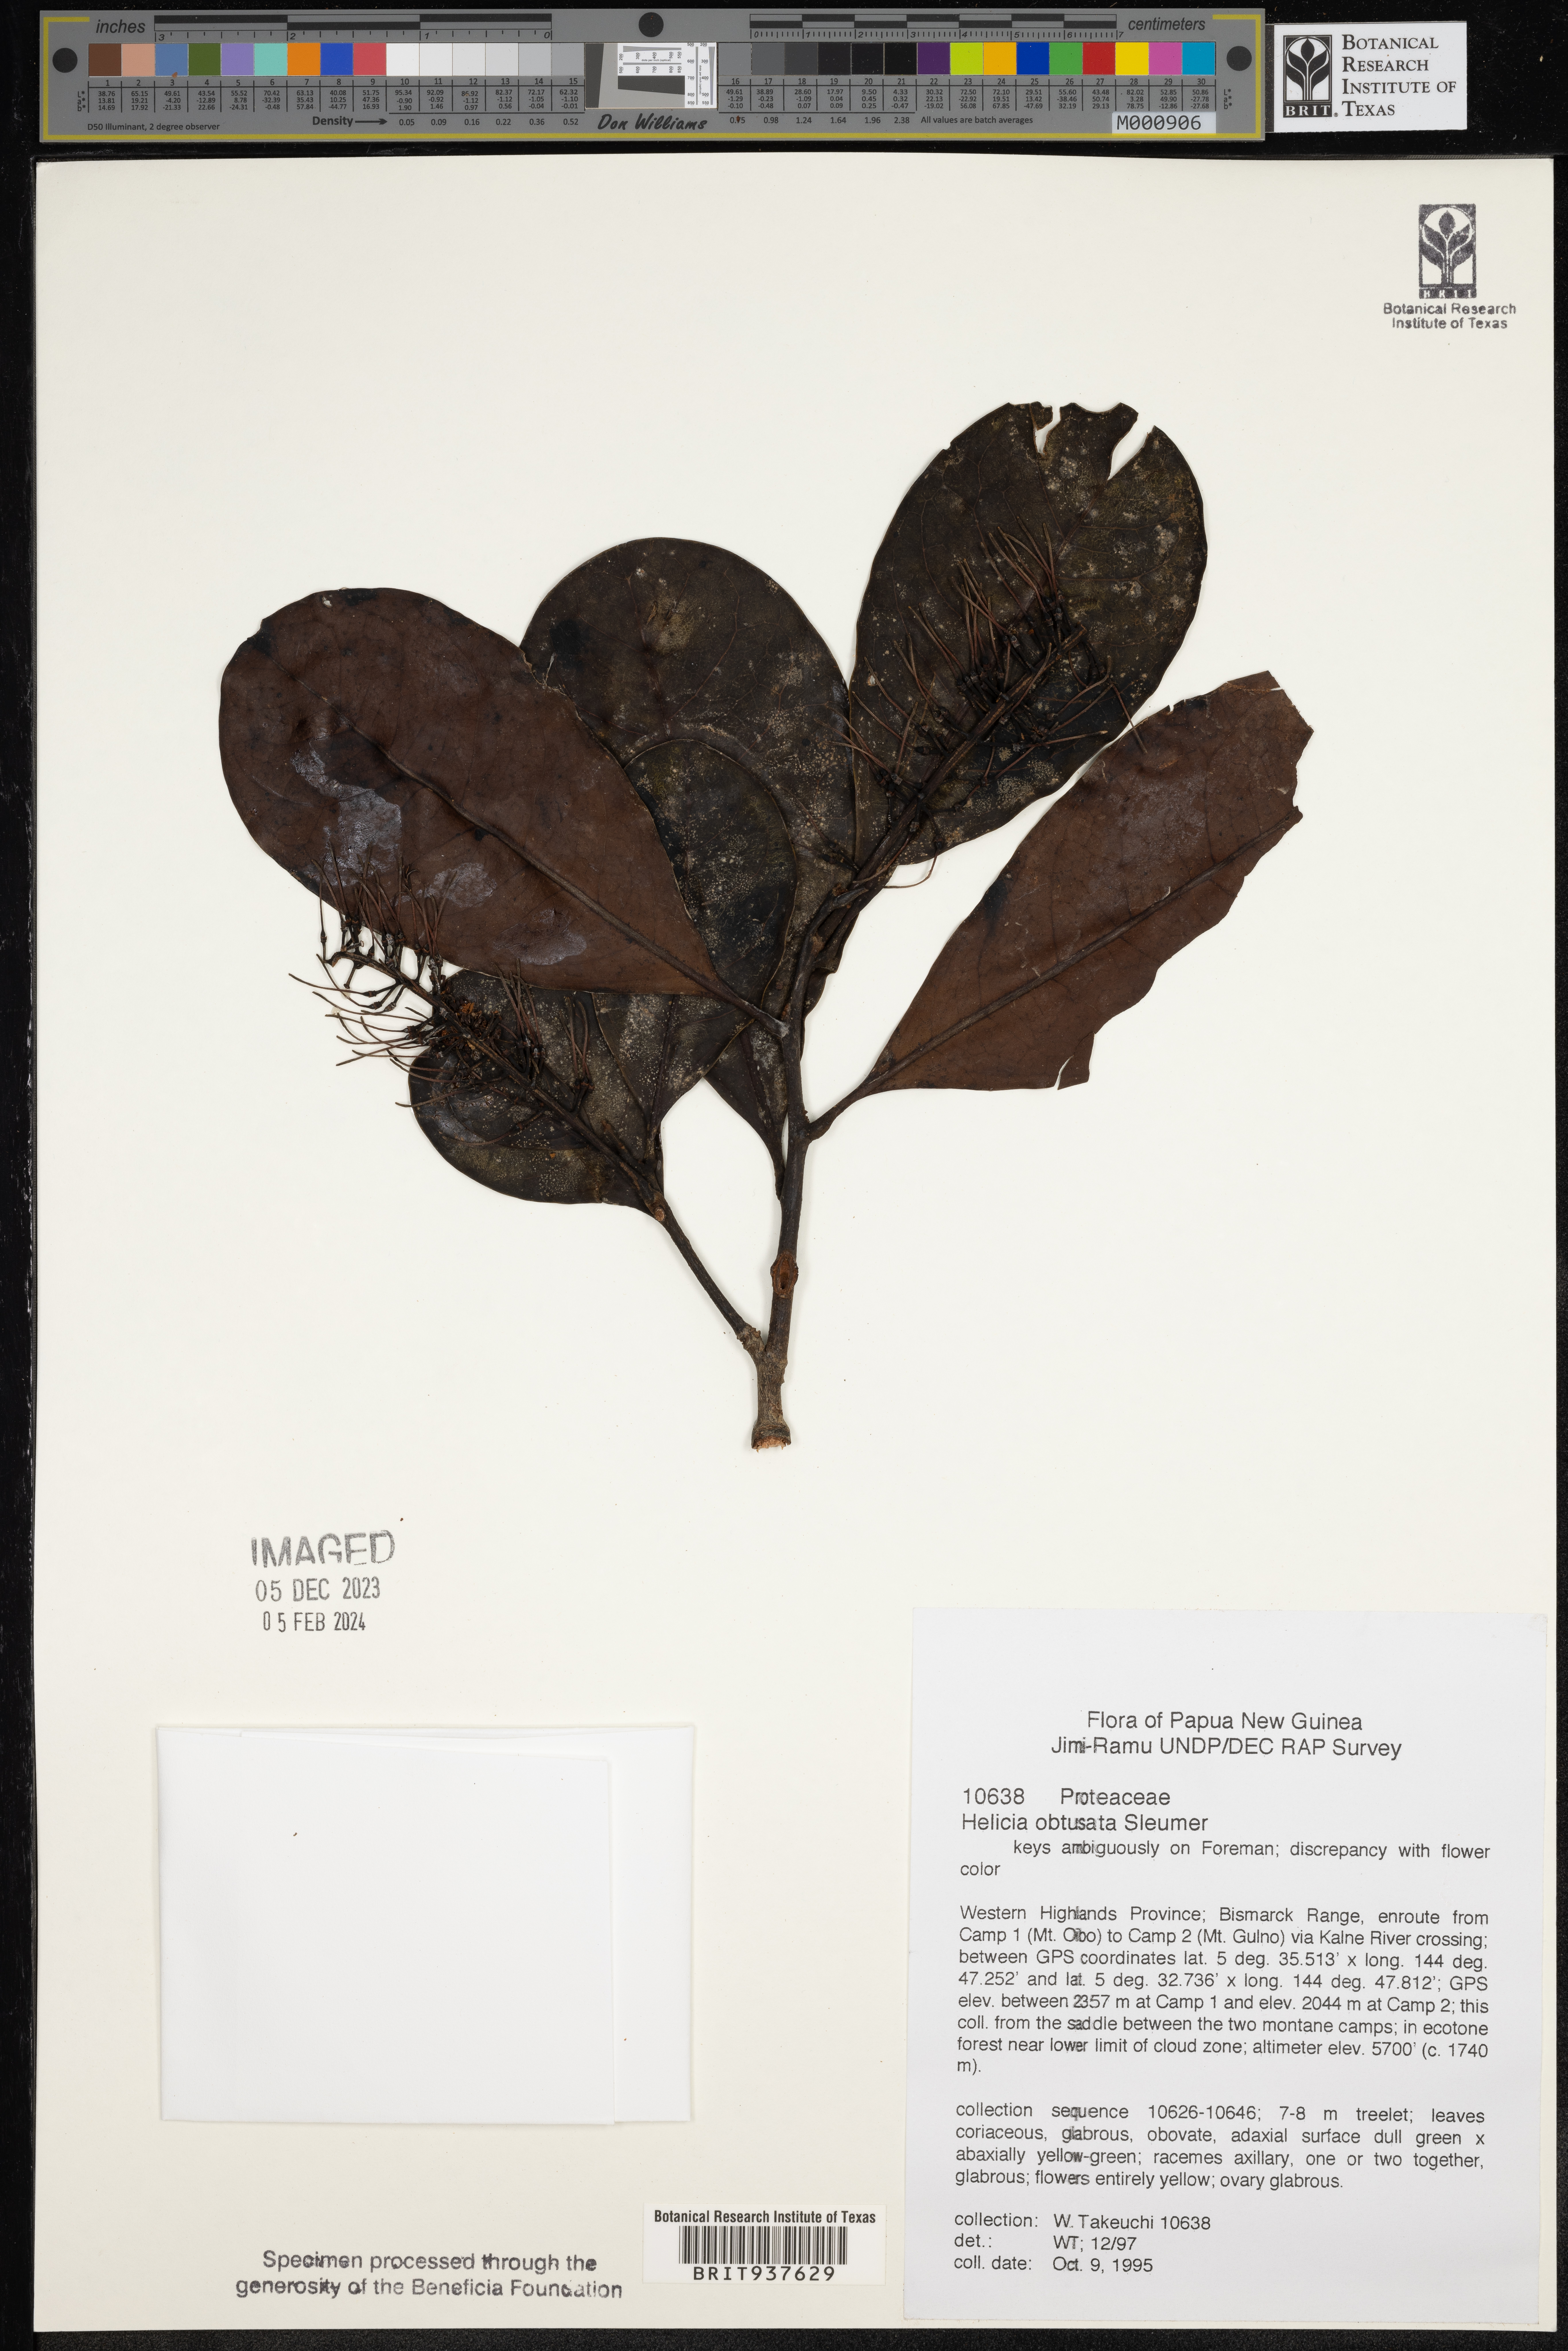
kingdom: Plantae
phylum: Tracheophyta
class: Magnoliopsida
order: Proteales
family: Proteaceae
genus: Helicia
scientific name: Helicia
